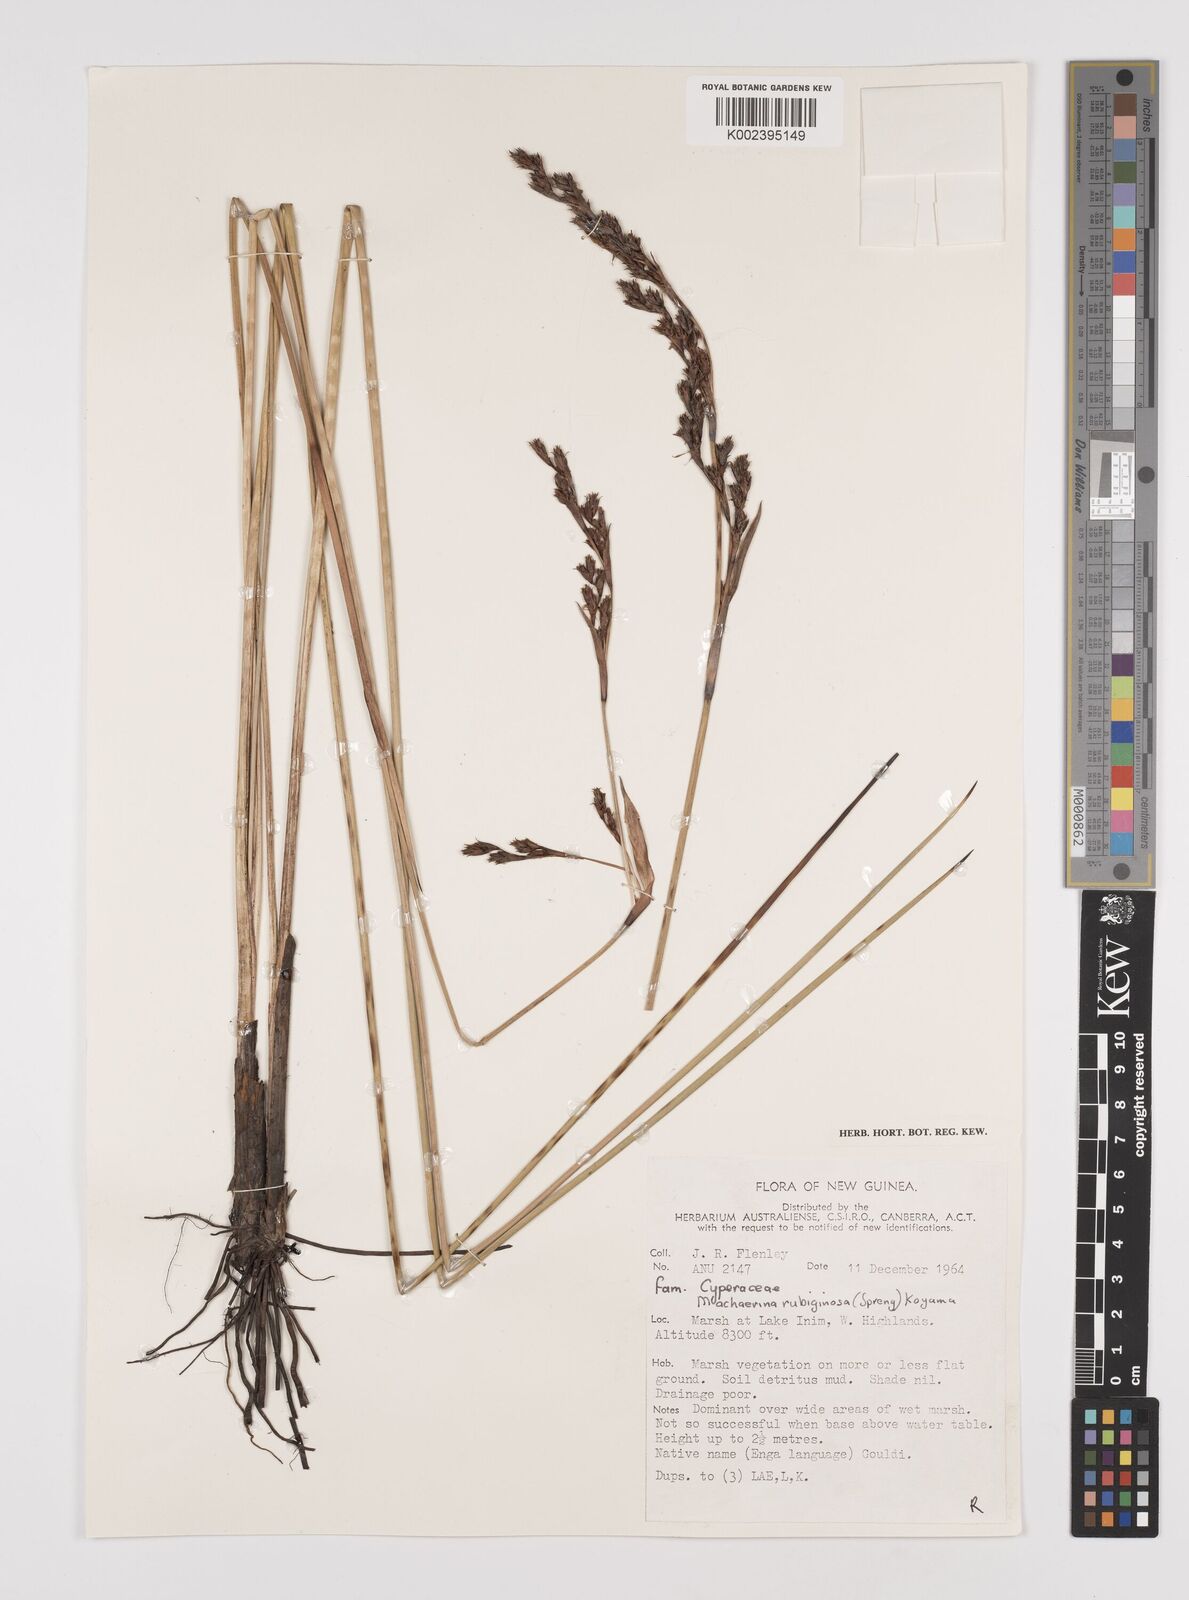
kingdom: Plantae
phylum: Tracheophyta
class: Liliopsida
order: Poales
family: Cyperaceae
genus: Machaerina
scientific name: Machaerina rubiginosa
